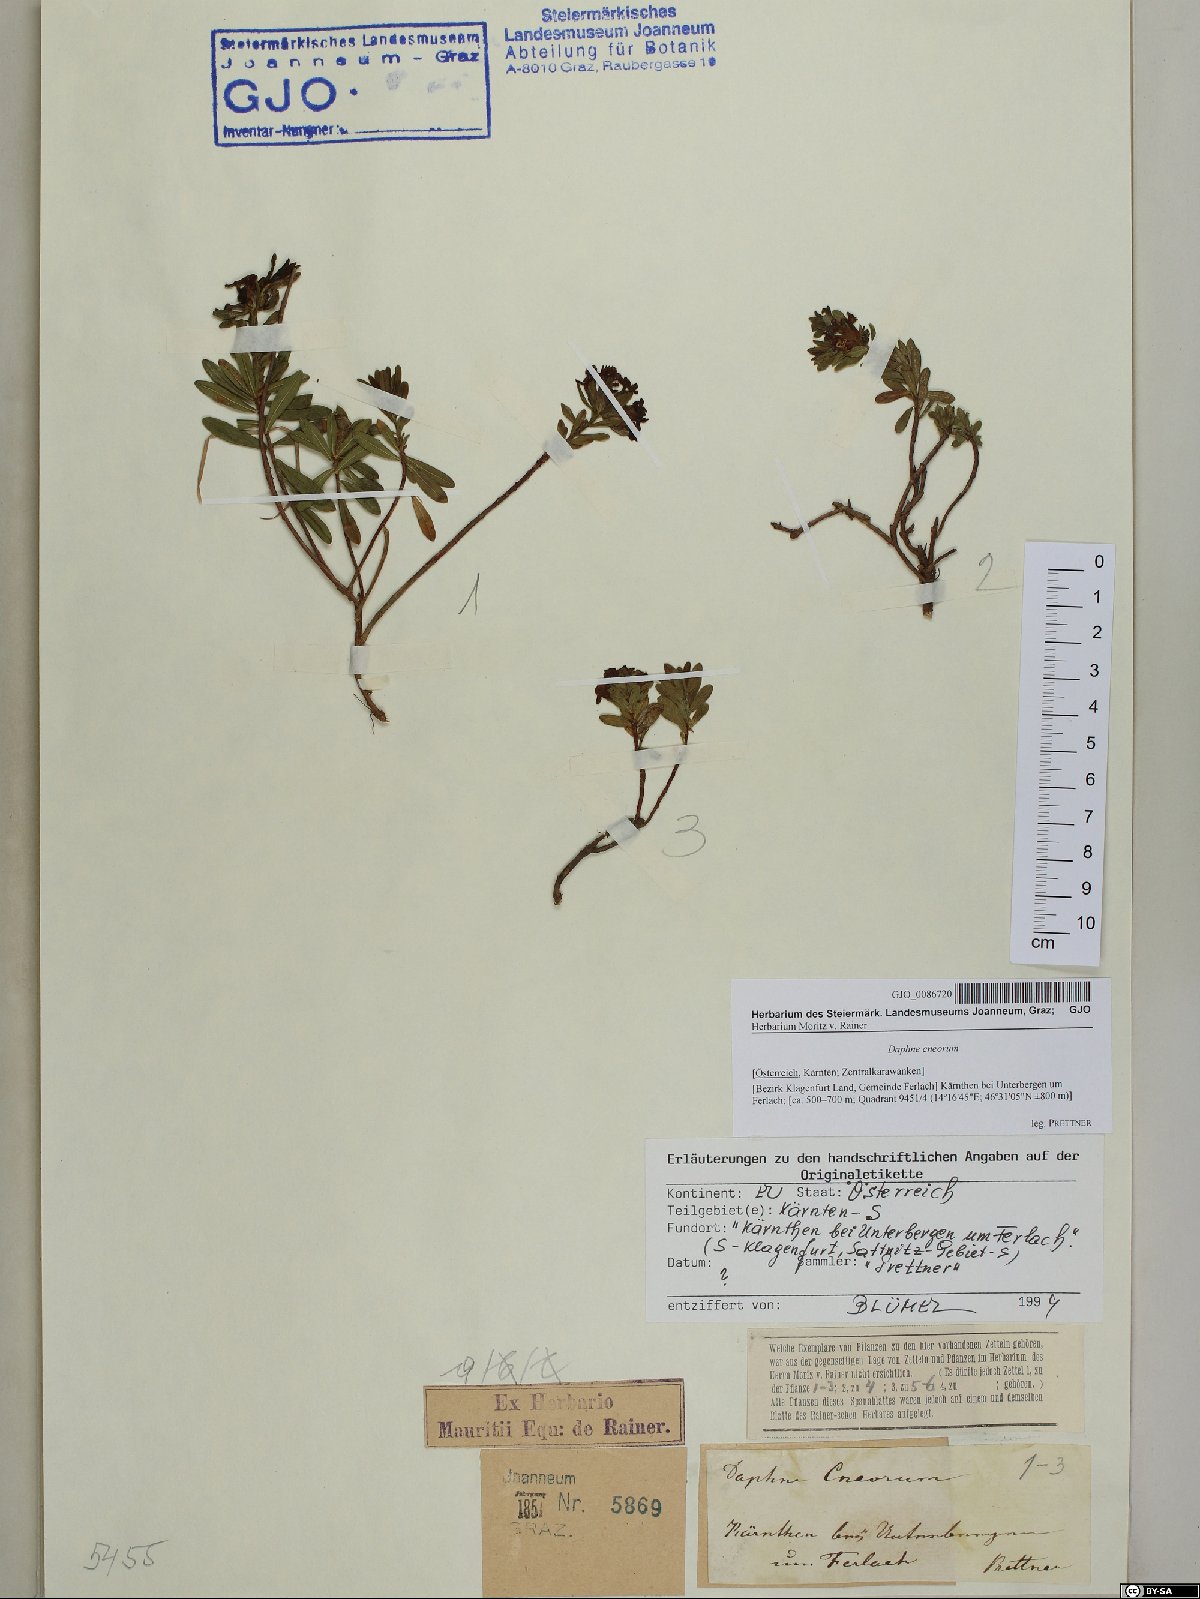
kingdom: Plantae
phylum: Tracheophyta
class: Magnoliopsida
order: Malvales
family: Thymelaeaceae
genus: Daphne
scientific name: Daphne cneorum
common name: Garland-flower
